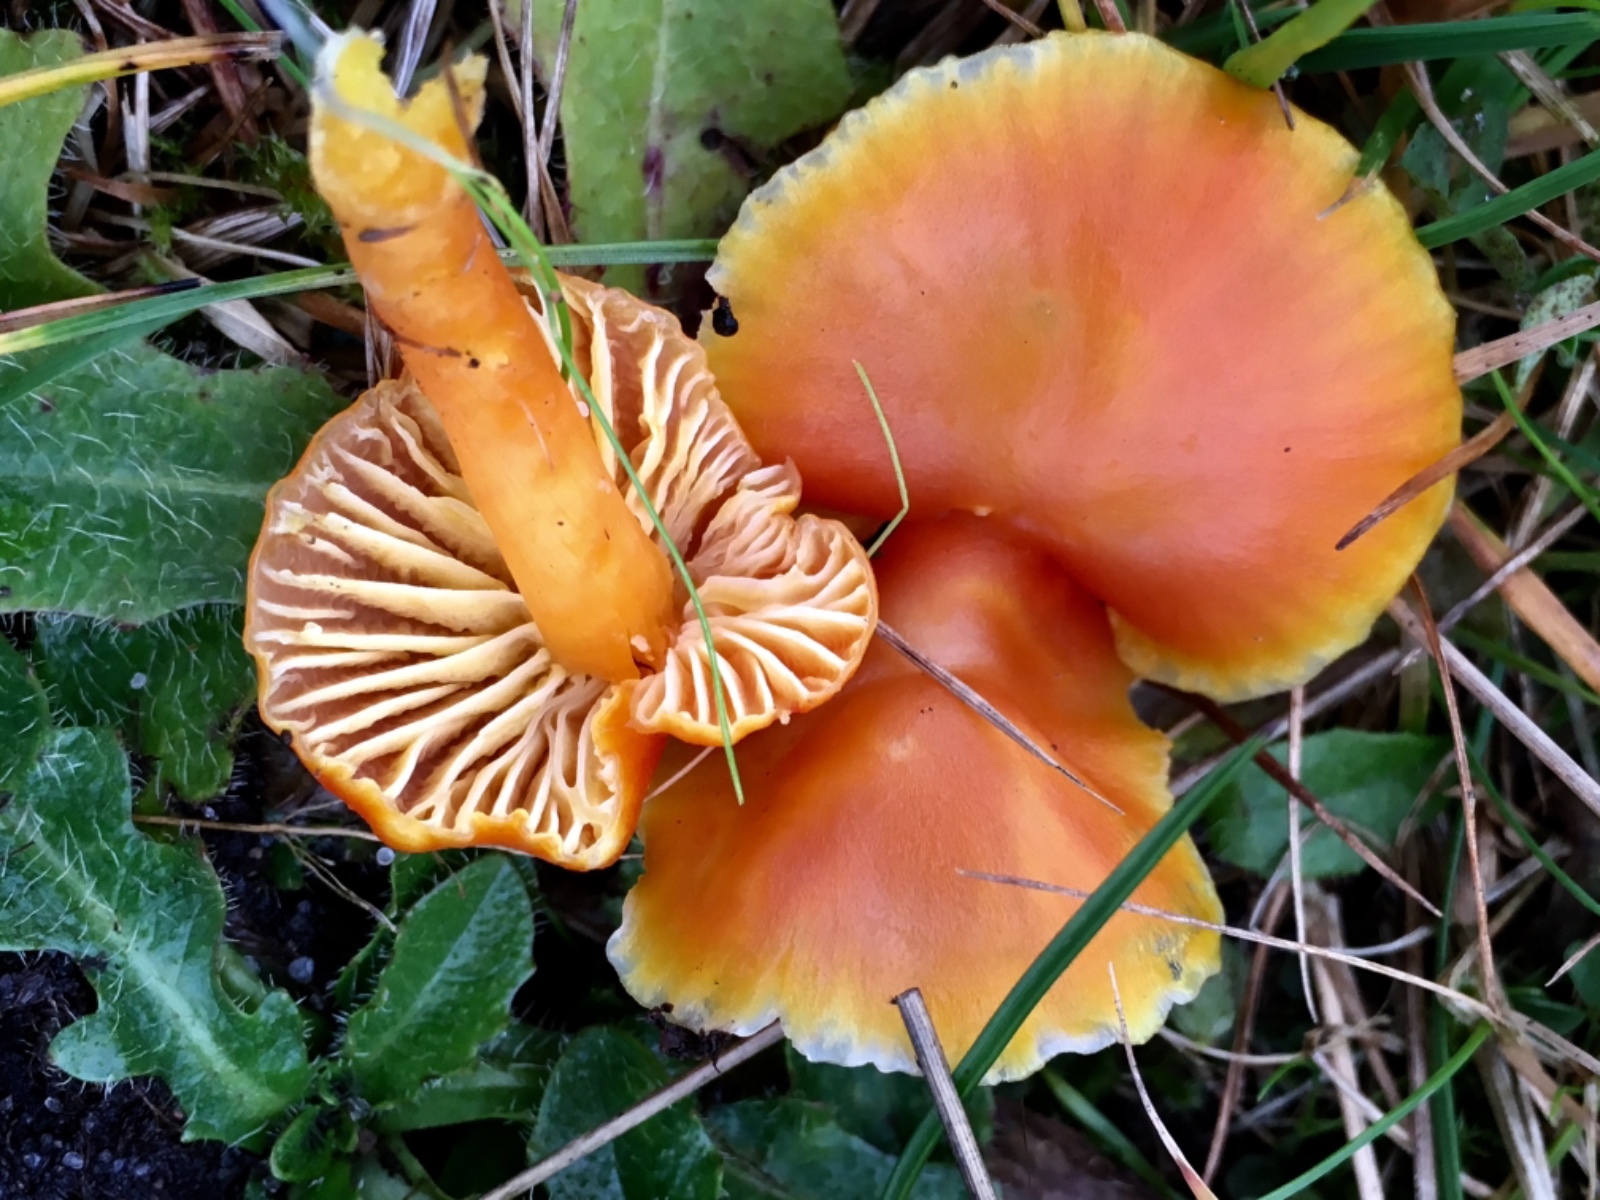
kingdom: Fungi
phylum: Basidiomycota
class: Agaricomycetes
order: Agaricales
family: Hygrophoraceae
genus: Hygrocybe
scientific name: Hygrocybe coccinea
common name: cinnober-vokshat
